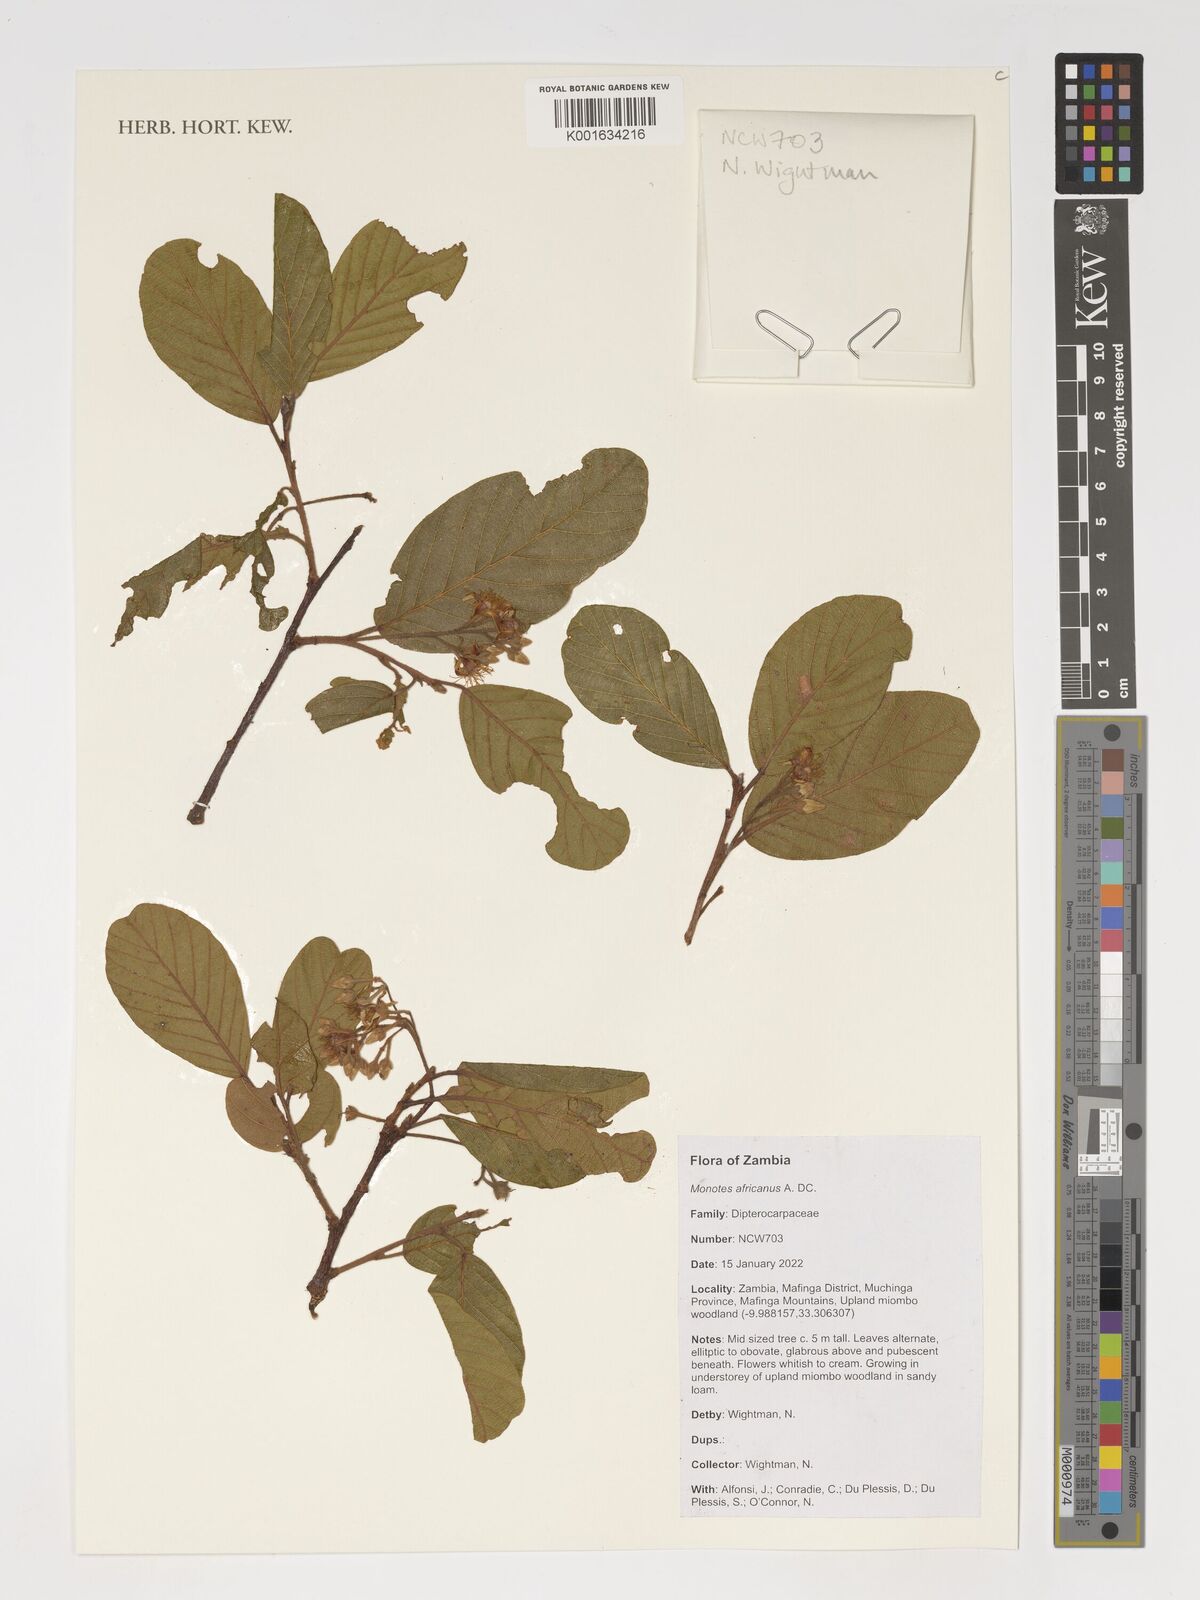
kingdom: Plantae
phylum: Tracheophyta
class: Magnoliopsida
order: Malvales
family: Dipterocarpaceae
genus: Monotes
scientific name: Monotes africanus
